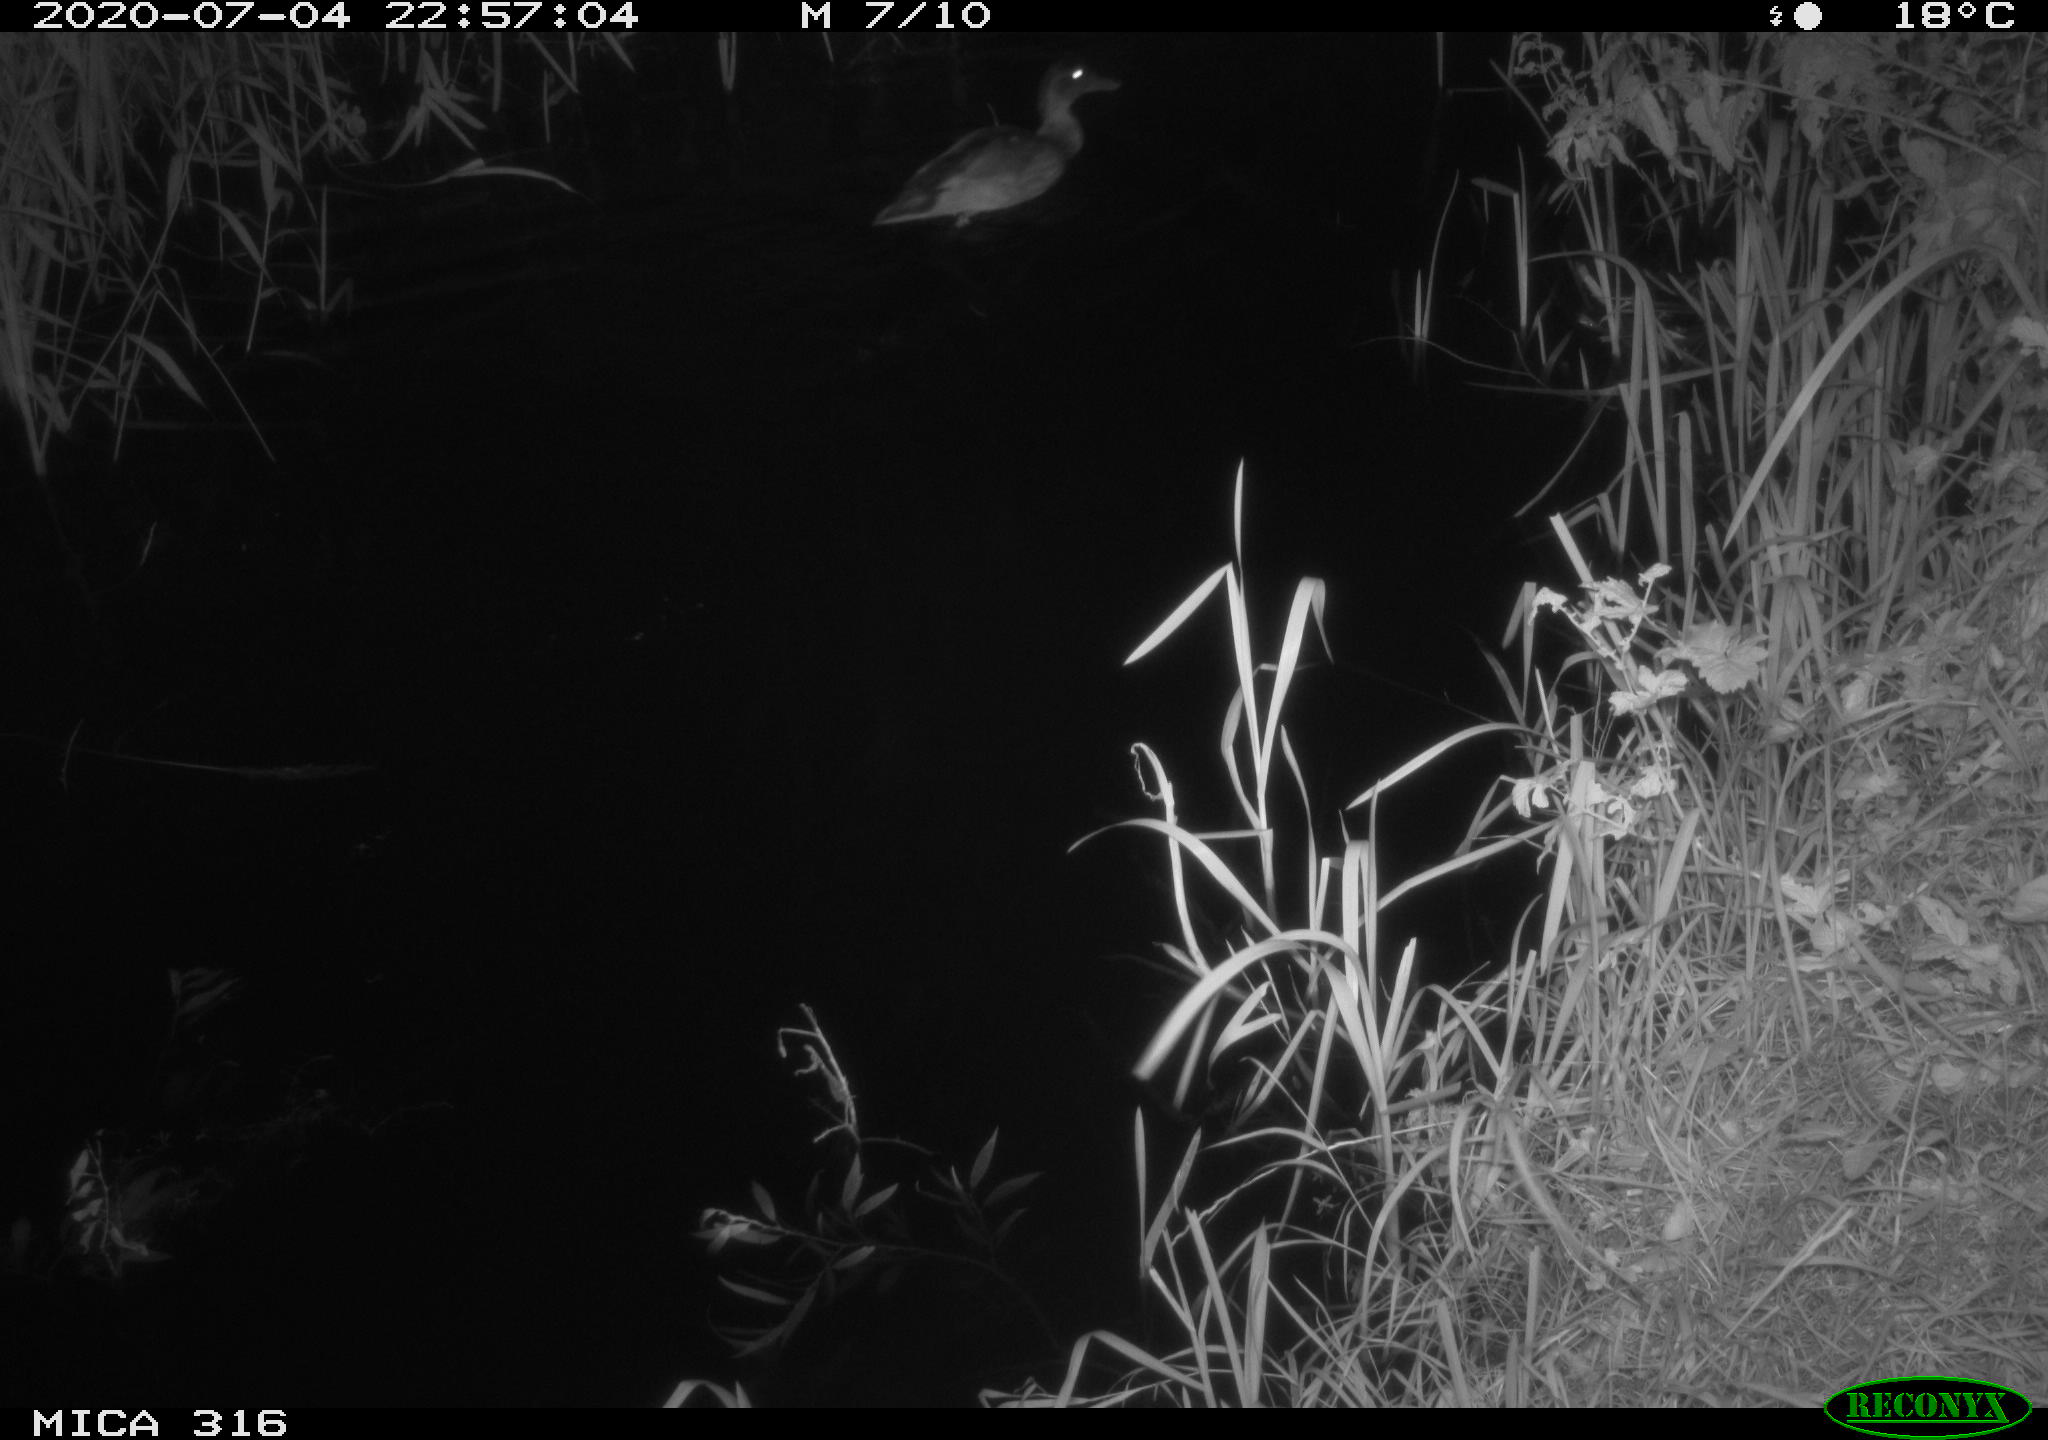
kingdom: Animalia
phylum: Chordata
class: Aves
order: Anseriformes
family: Anatidae
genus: Anas
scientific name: Anas platyrhynchos
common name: Mallard
